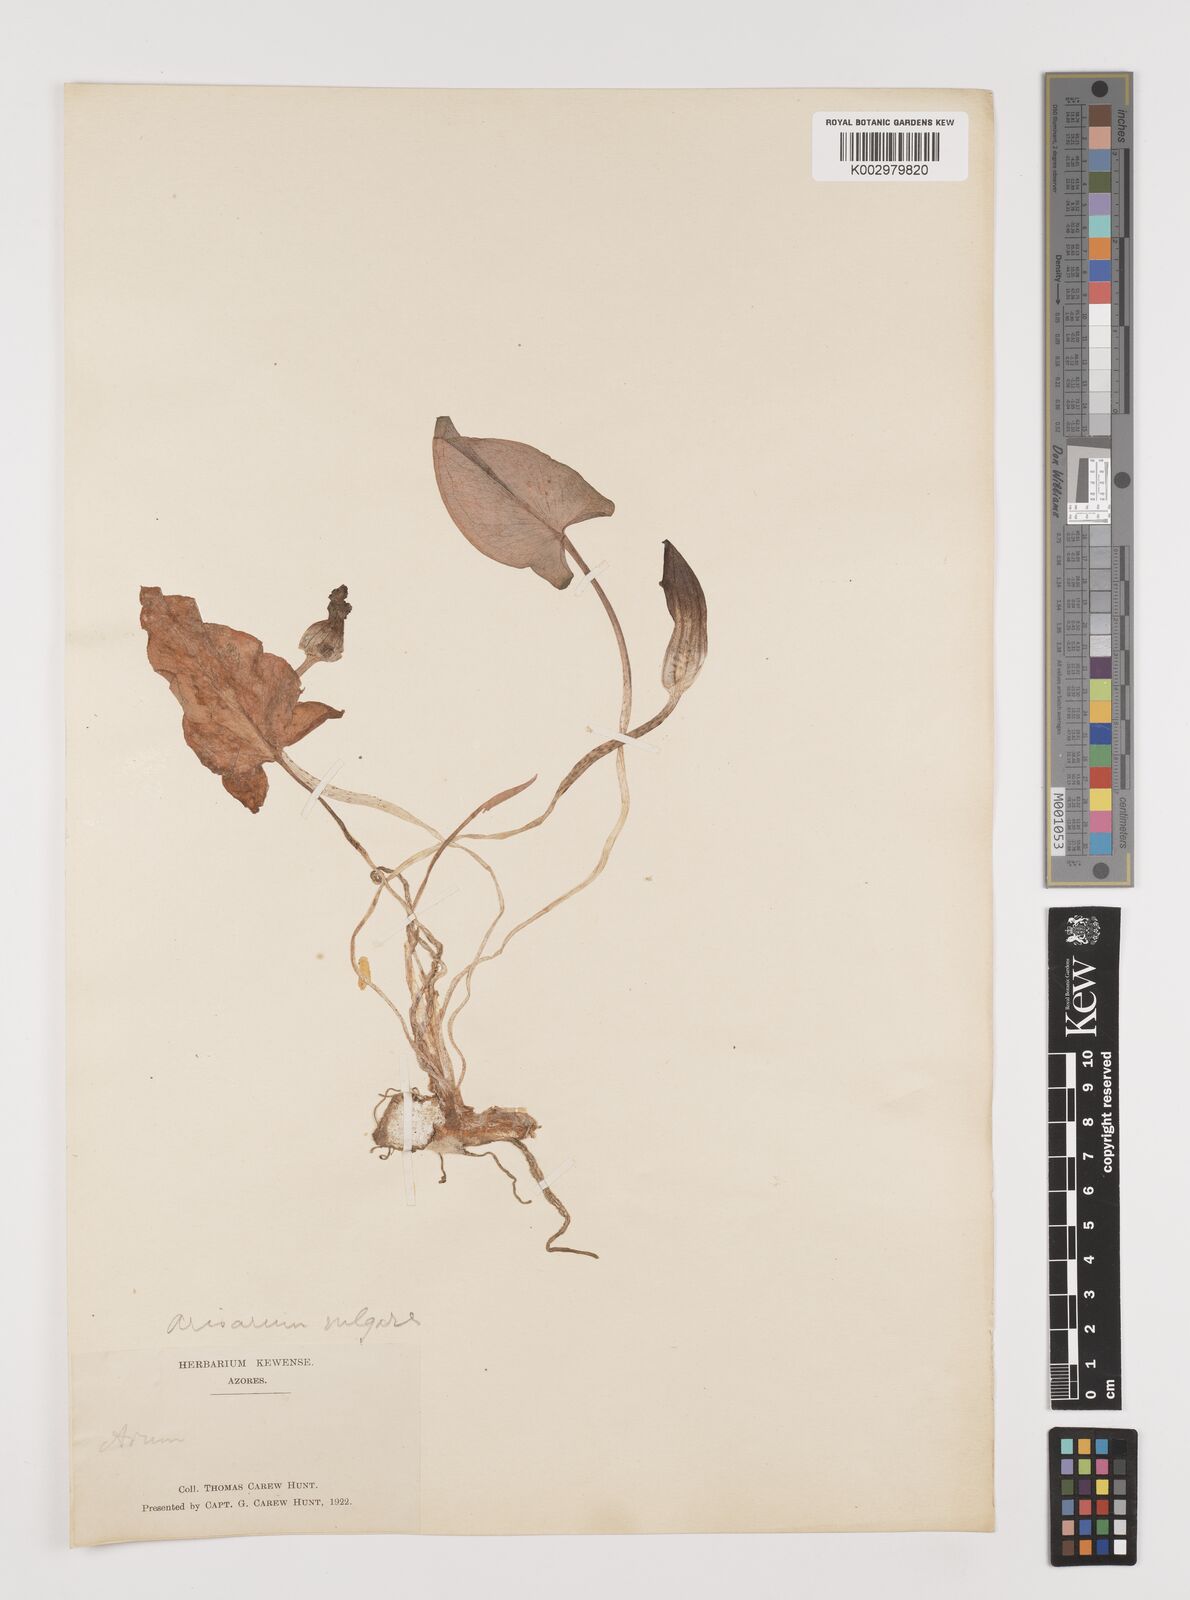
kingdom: Plantae
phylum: Tracheophyta
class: Liliopsida
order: Alismatales
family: Araceae
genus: Arisarum
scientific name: Arisarum vulgare
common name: Common arisarum
